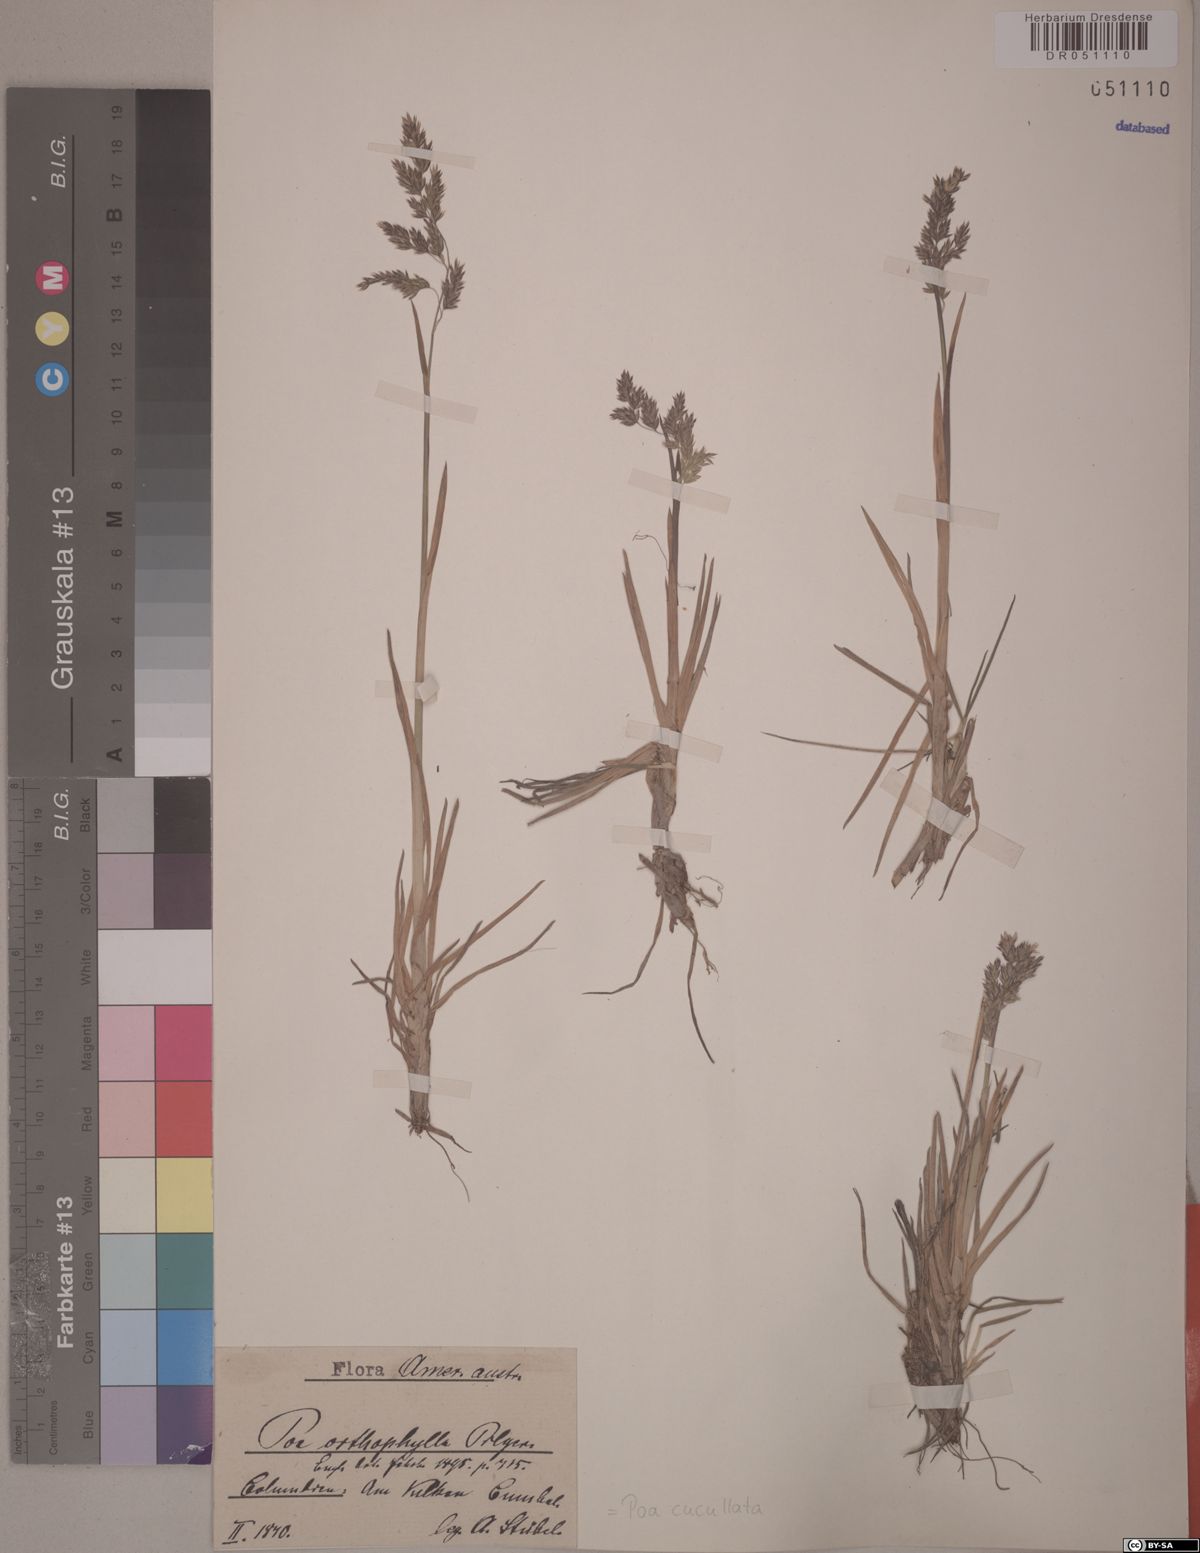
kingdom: Plantae
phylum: Tracheophyta
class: Liliopsida
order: Poales
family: Poaceae
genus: Poa
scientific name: Poa cucullata
